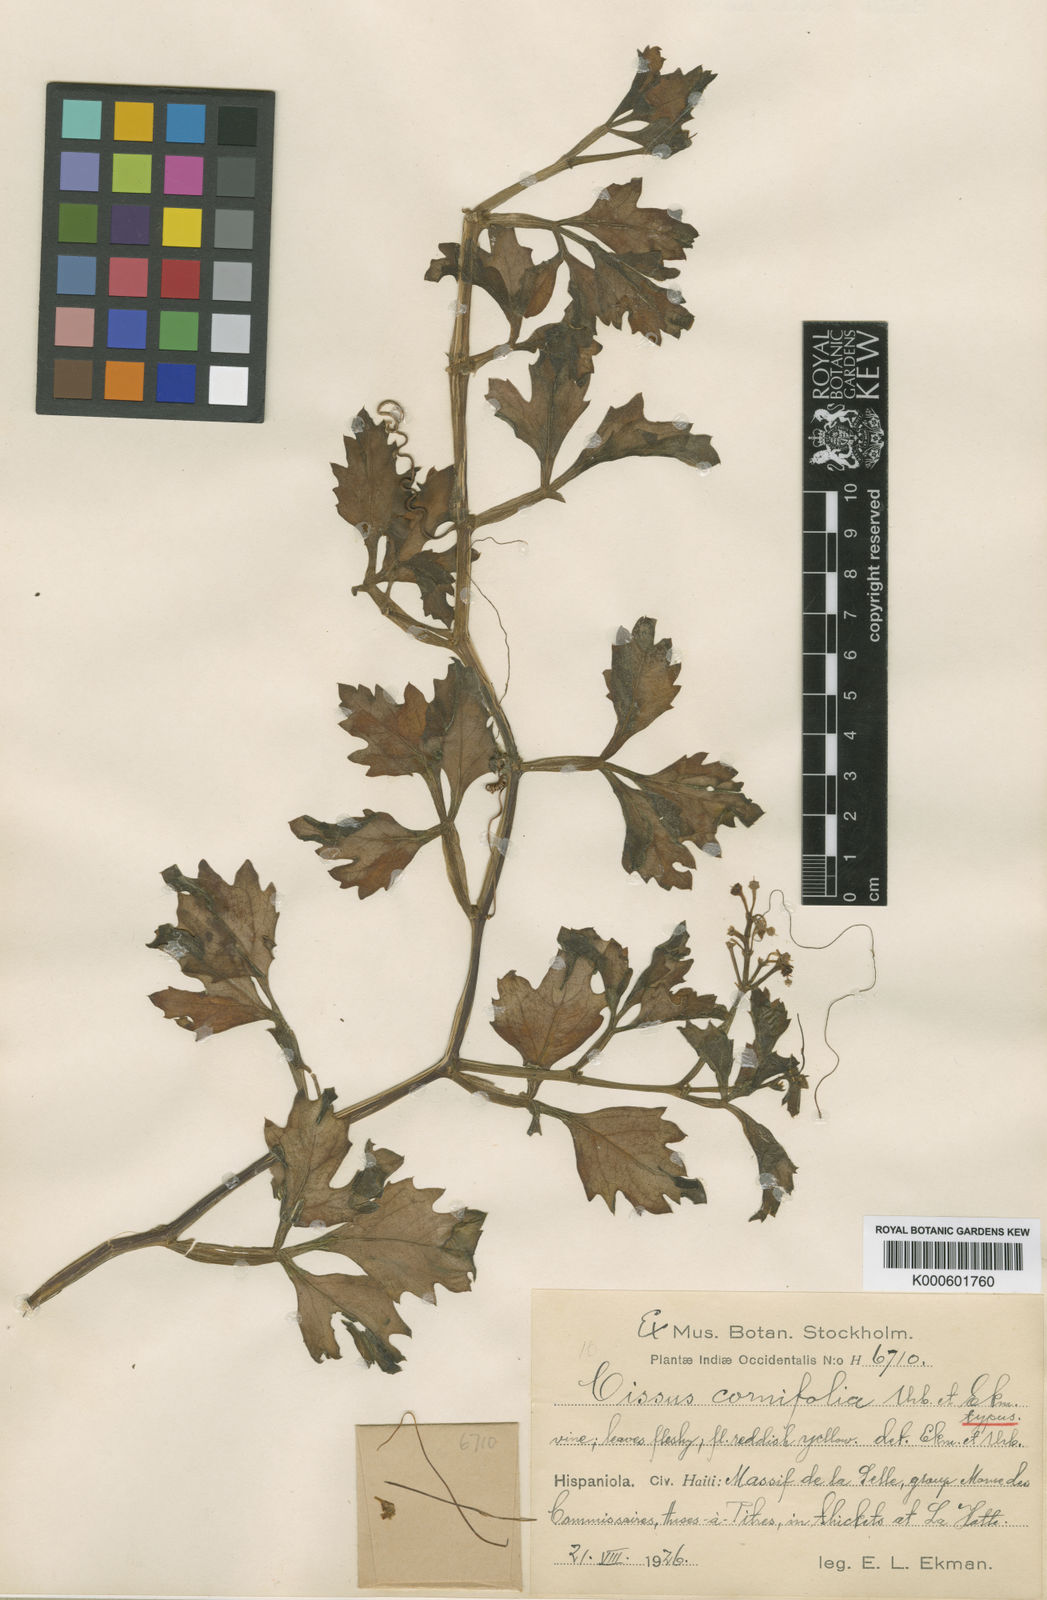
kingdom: Plantae
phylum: Tracheophyta
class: Magnoliopsida
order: Vitales
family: Vitaceae
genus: Cissus
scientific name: Cissus cornifolia
